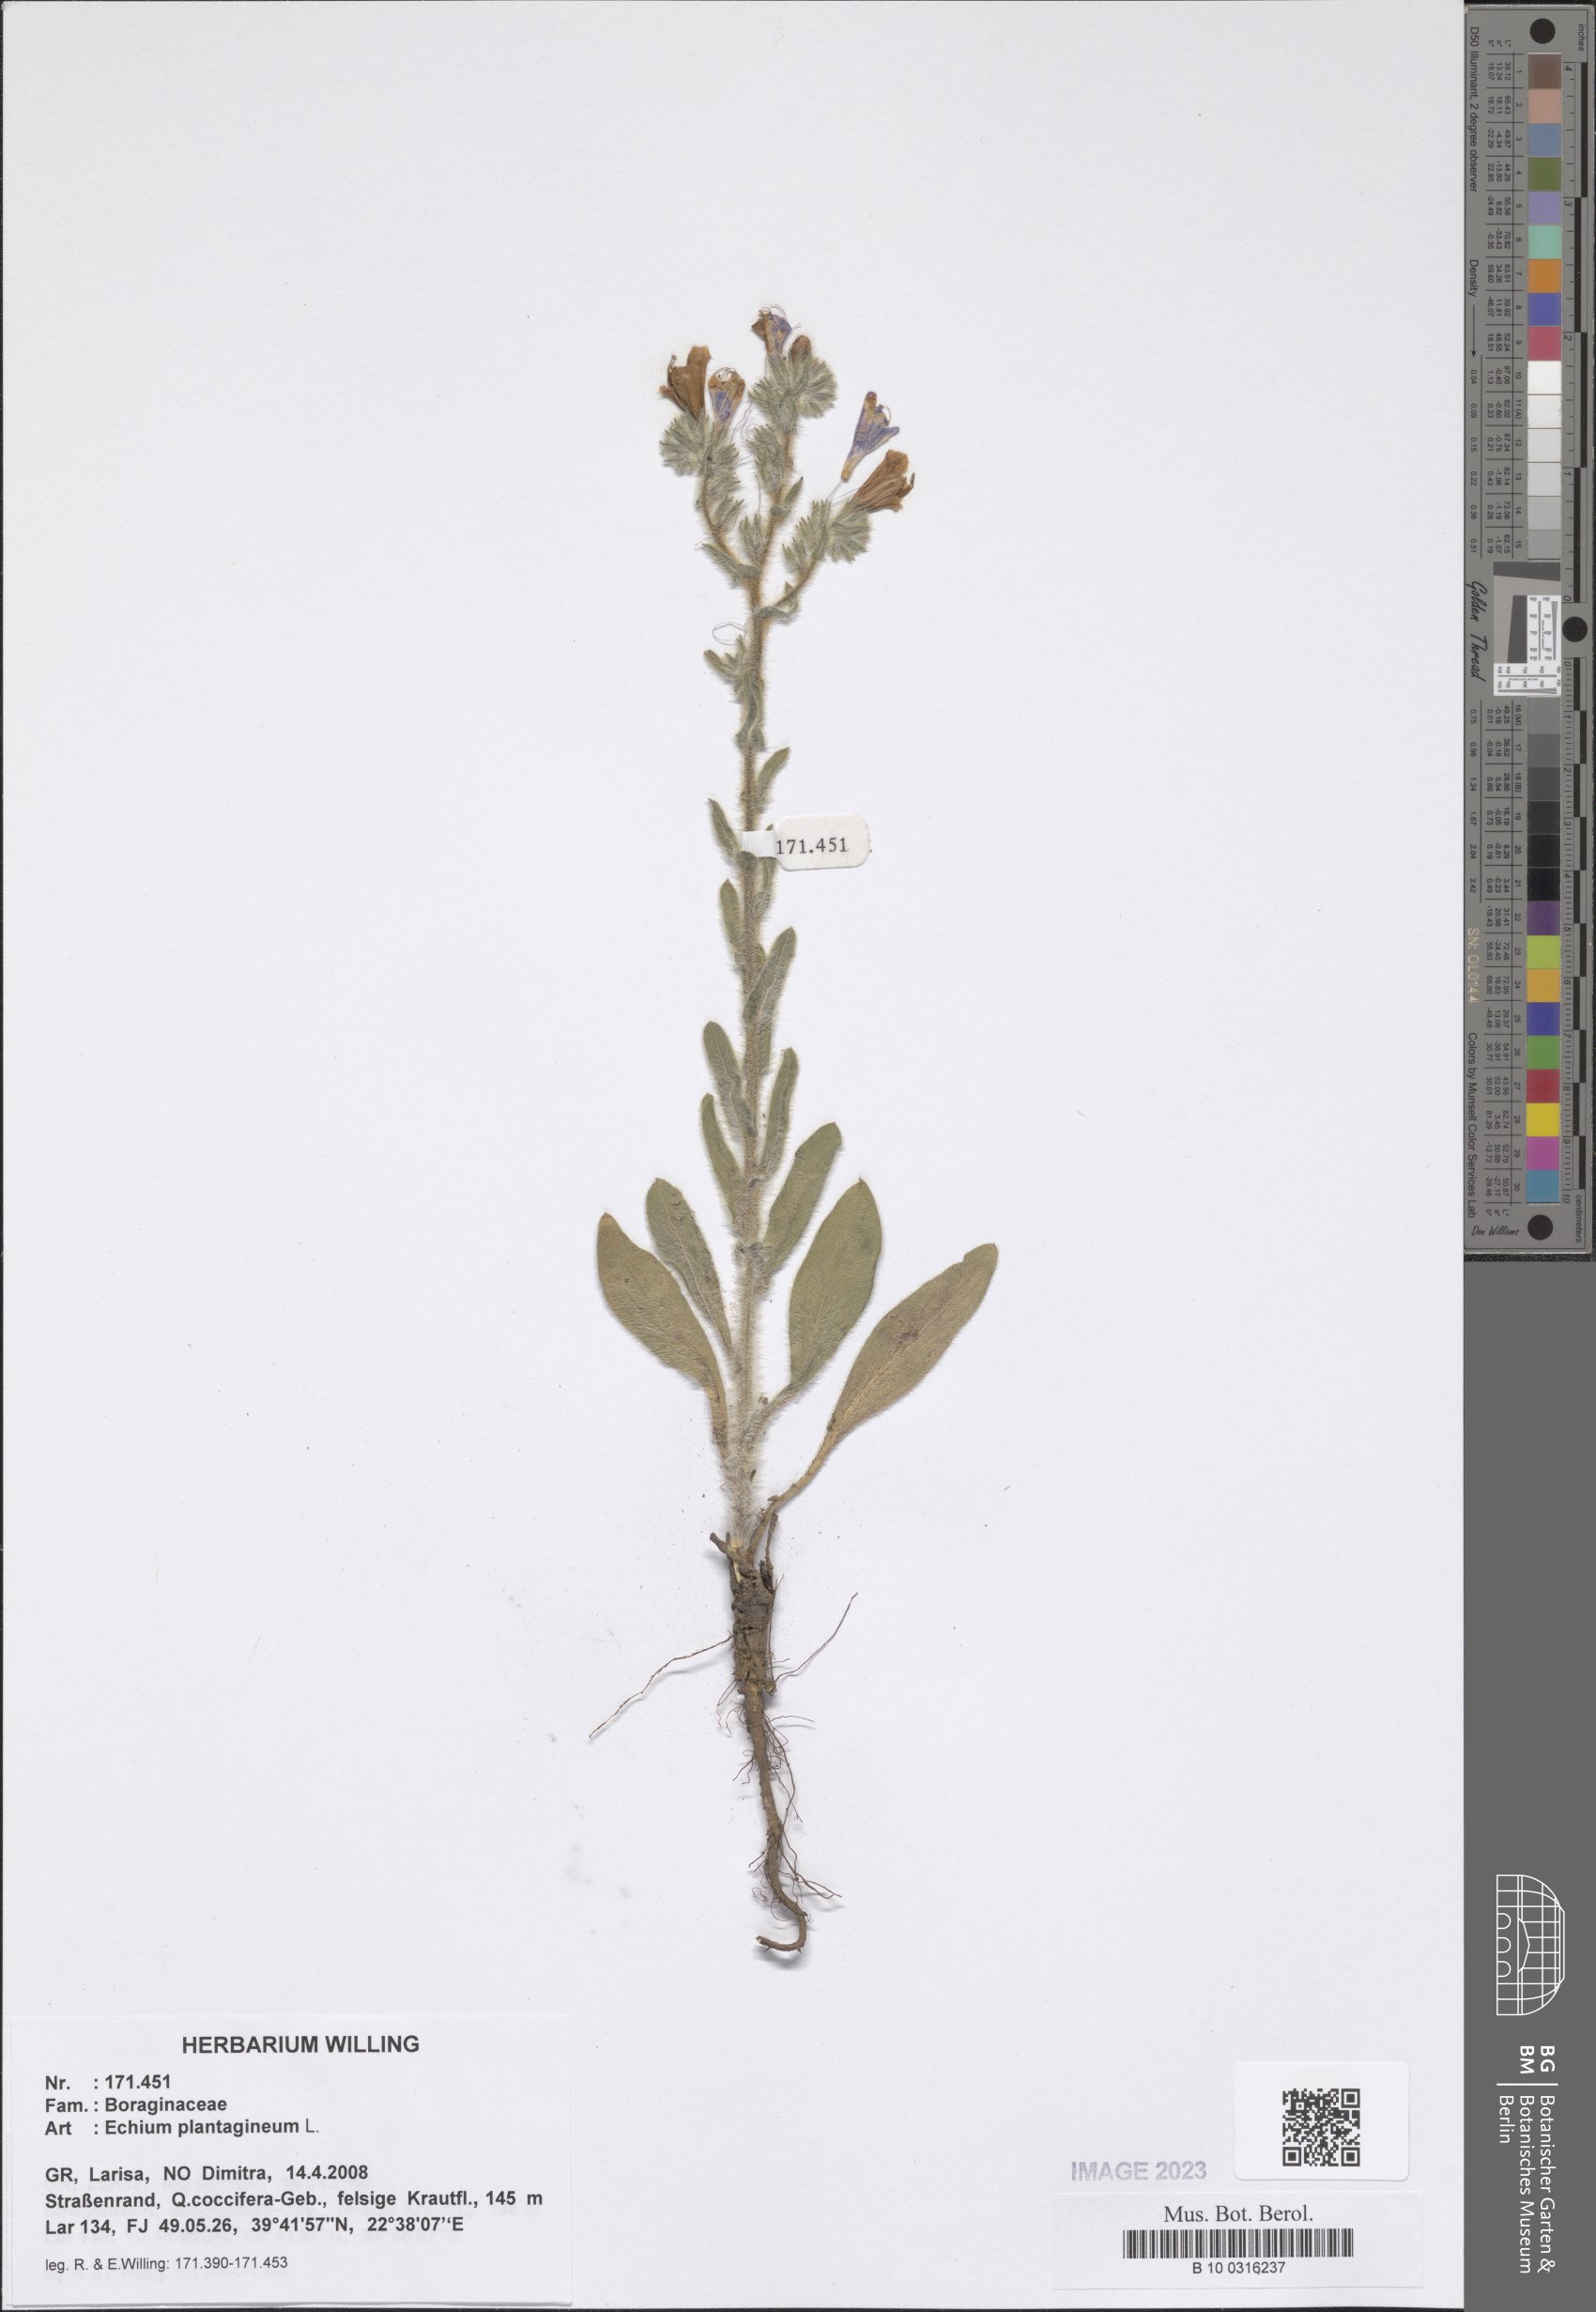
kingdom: Plantae
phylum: Tracheophyta
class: Magnoliopsida
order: Boraginales
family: Boraginaceae
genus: Echium
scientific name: Echium plantagineum
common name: Purple viper's-bugloss
